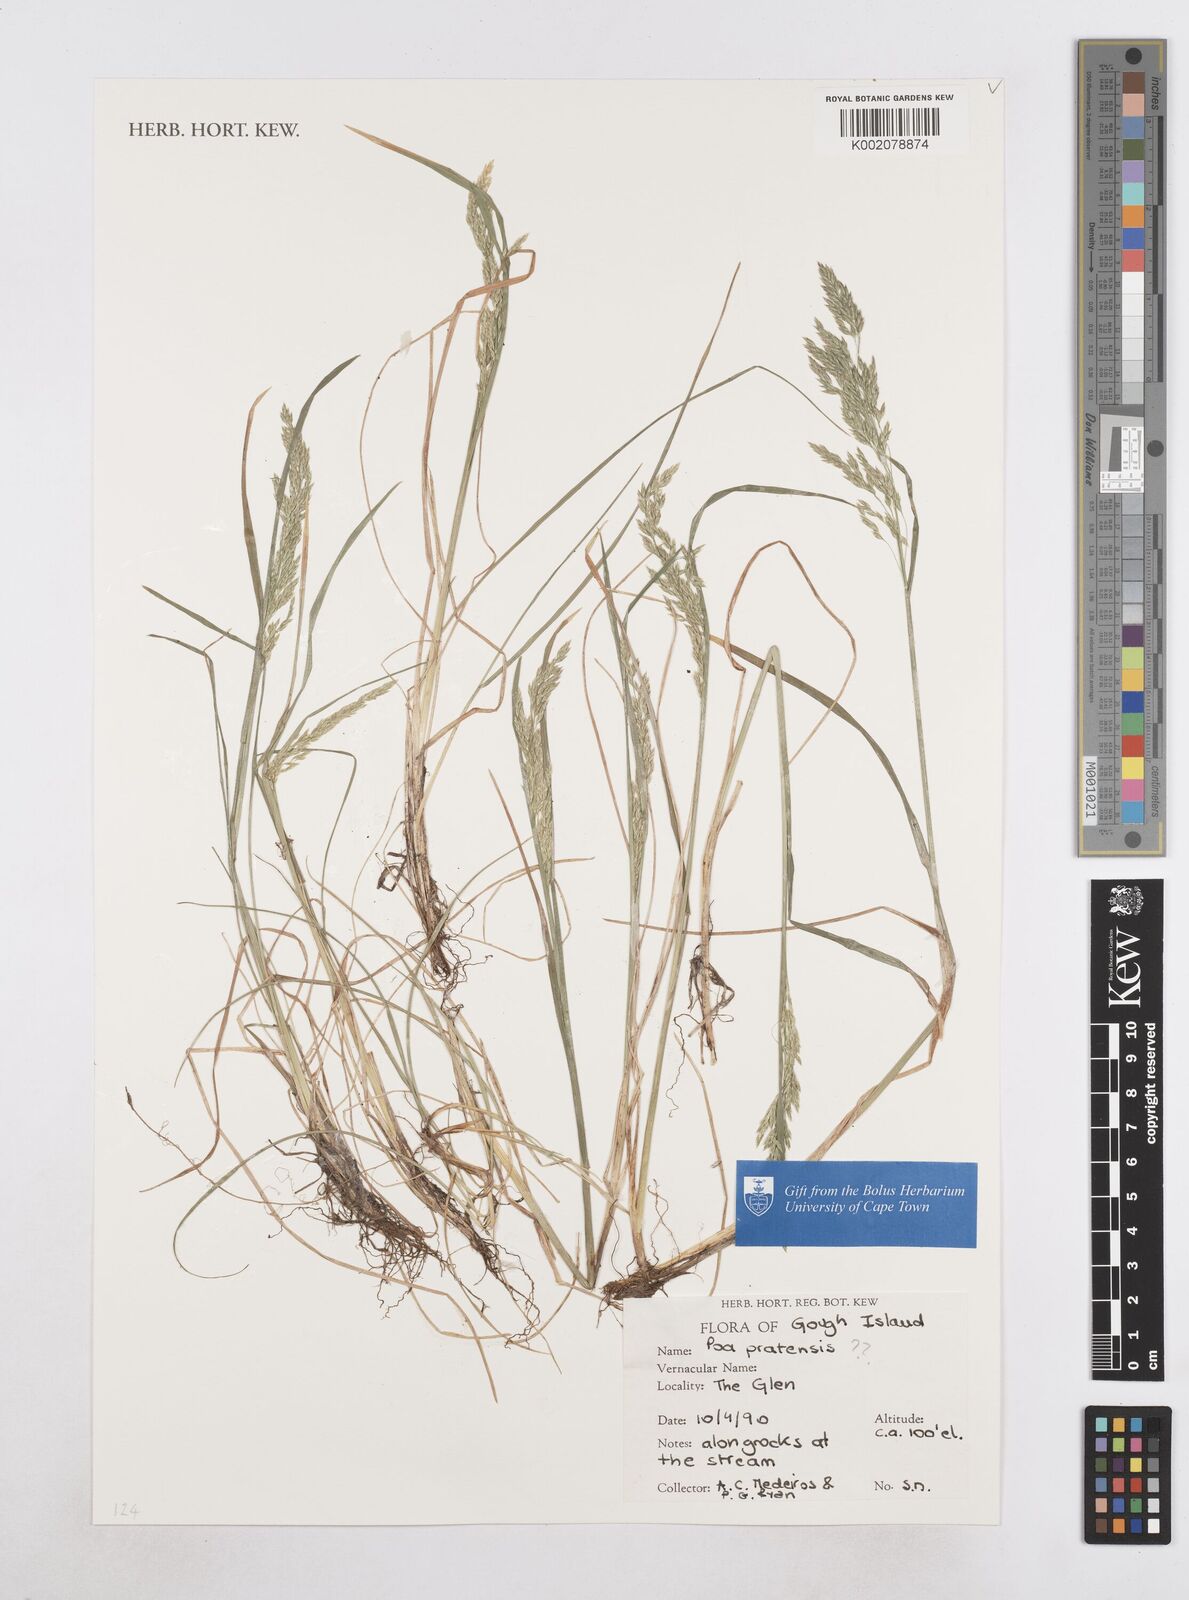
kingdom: Plantae
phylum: Tracheophyta
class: Liliopsida
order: Poales
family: Poaceae
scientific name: Poaceae
